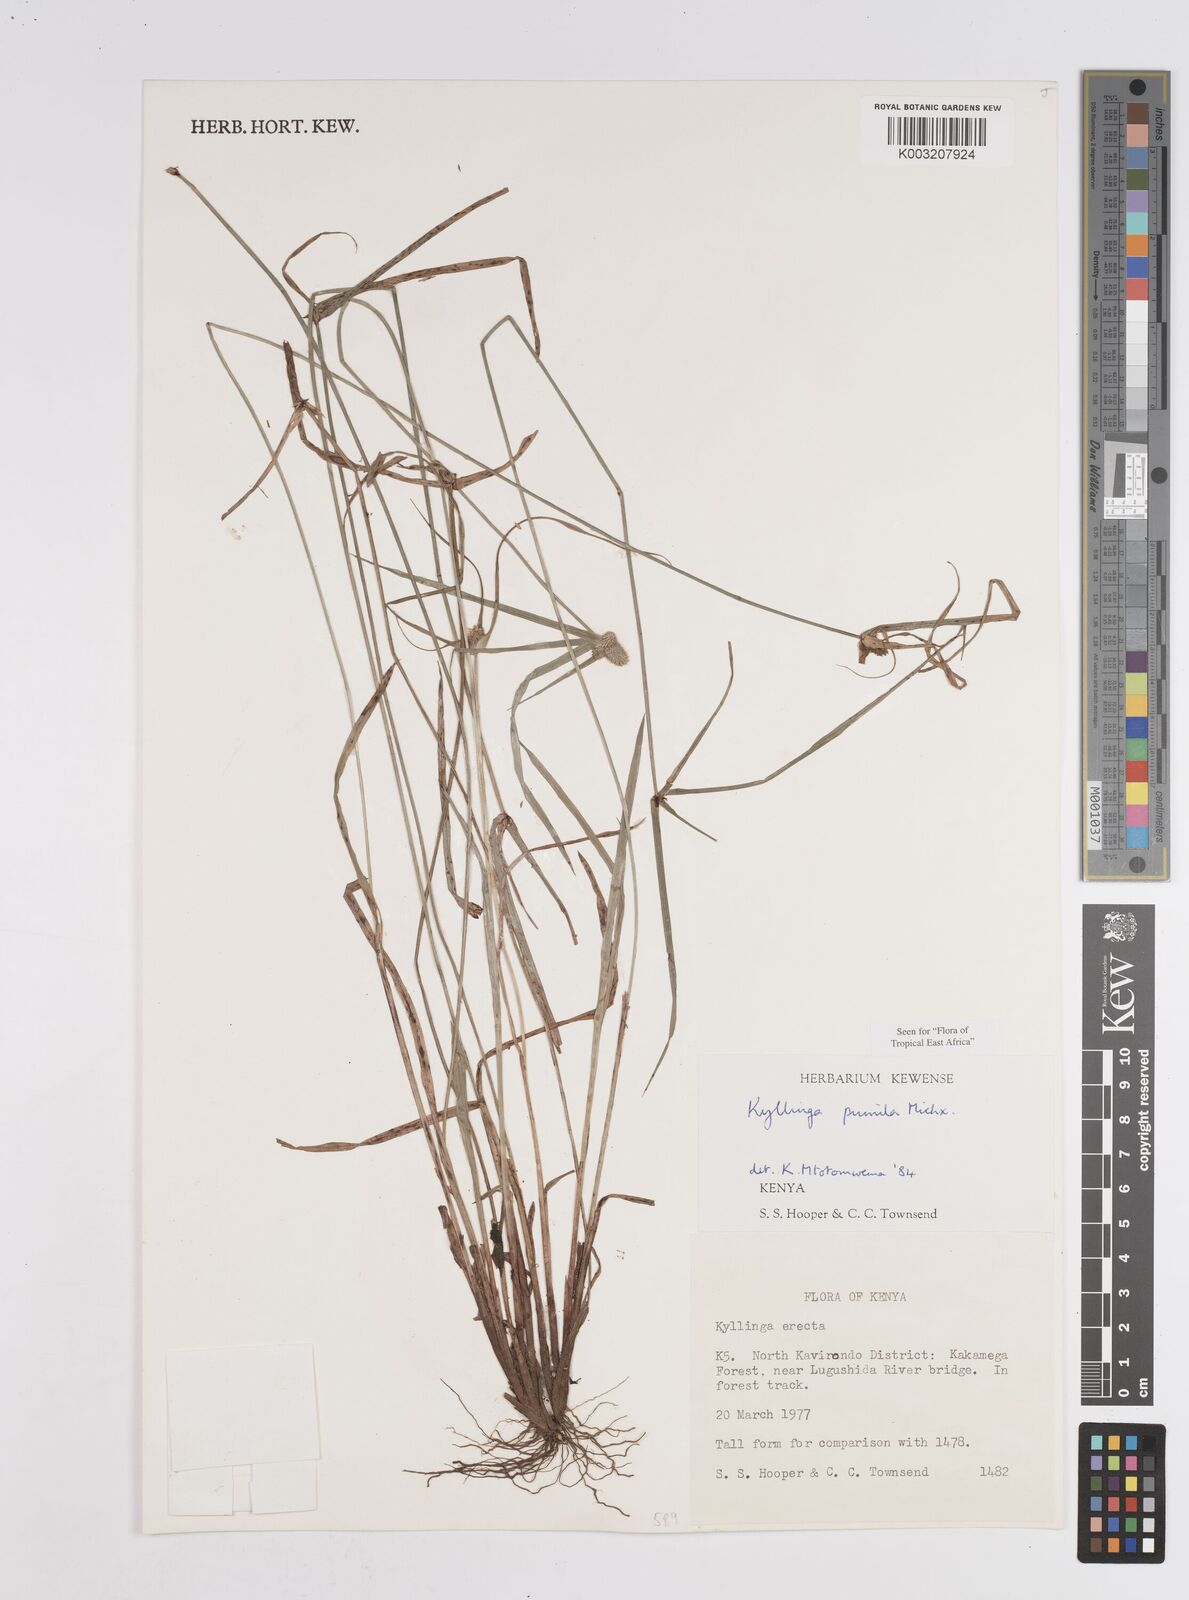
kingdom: Plantae
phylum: Tracheophyta
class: Liliopsida
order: Poales
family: Cyperaceae
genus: Cyperus
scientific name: Cyperus
